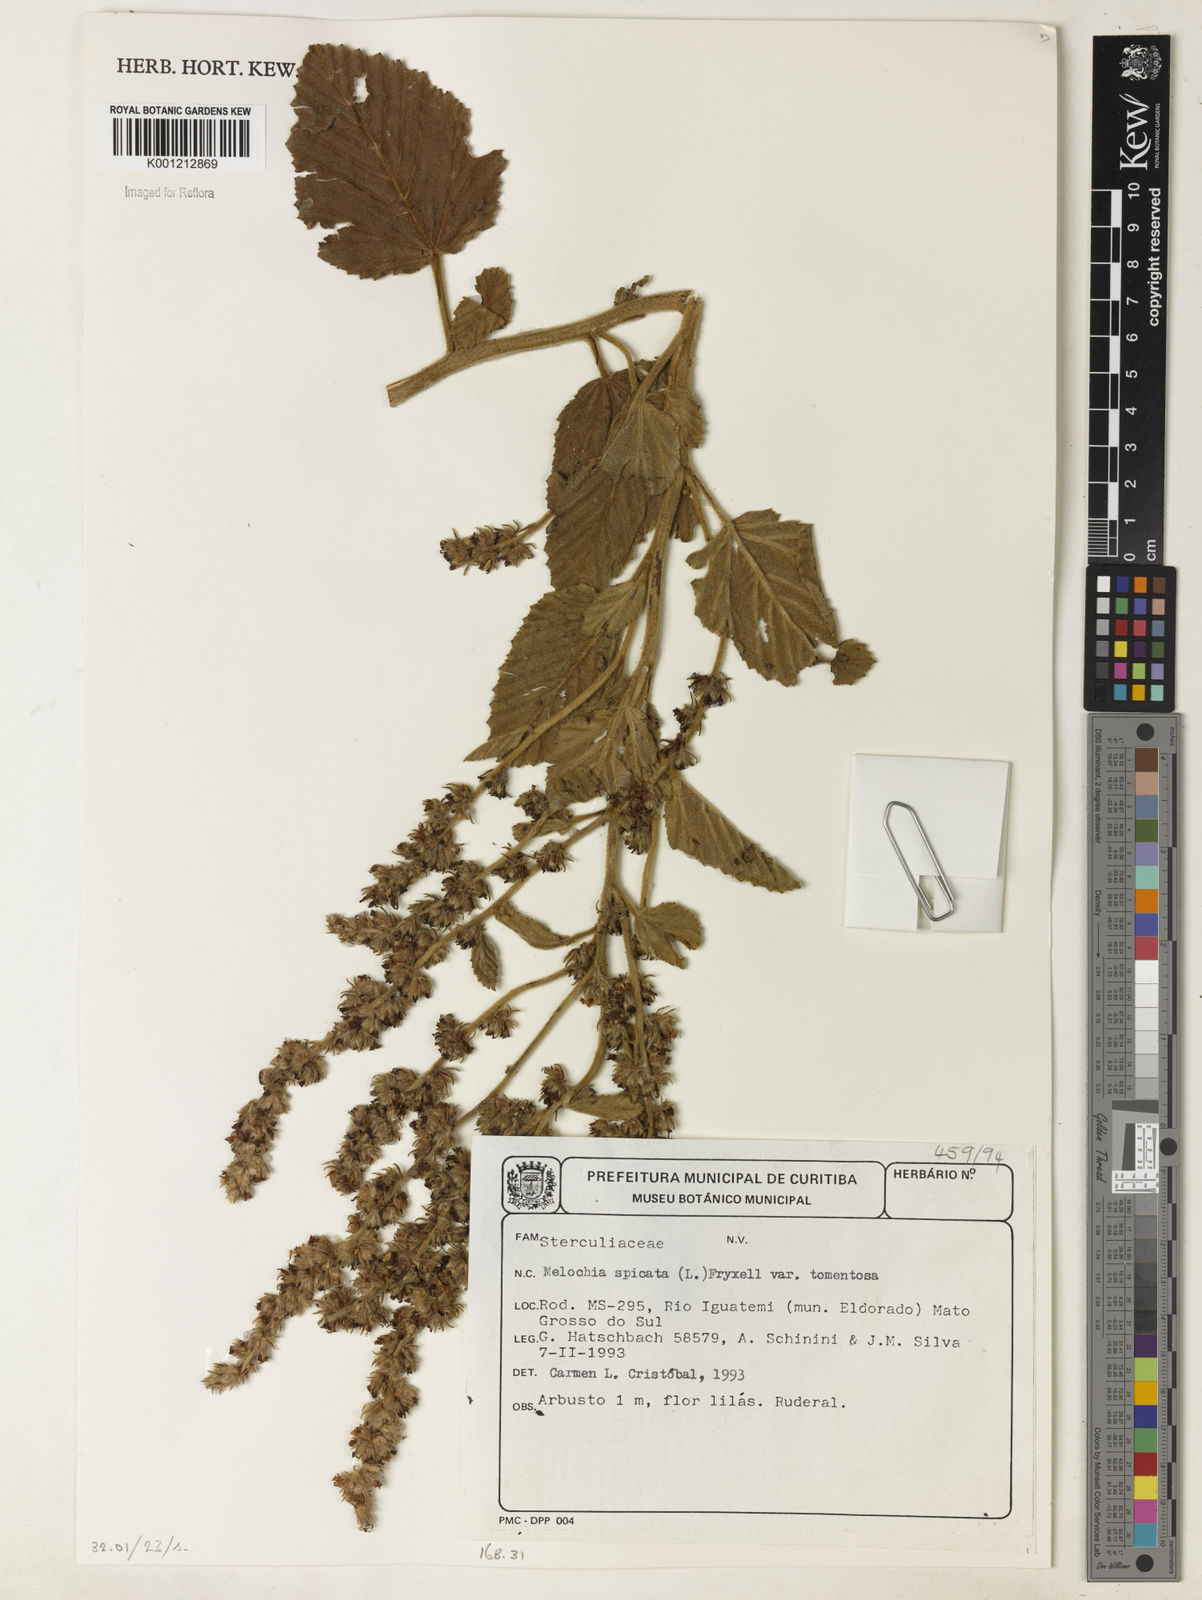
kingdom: Plantae
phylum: Tracheophyta
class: Magnoliopsida
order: Malvales
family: Malvaceae
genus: Melochia
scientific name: Melochia spicata
